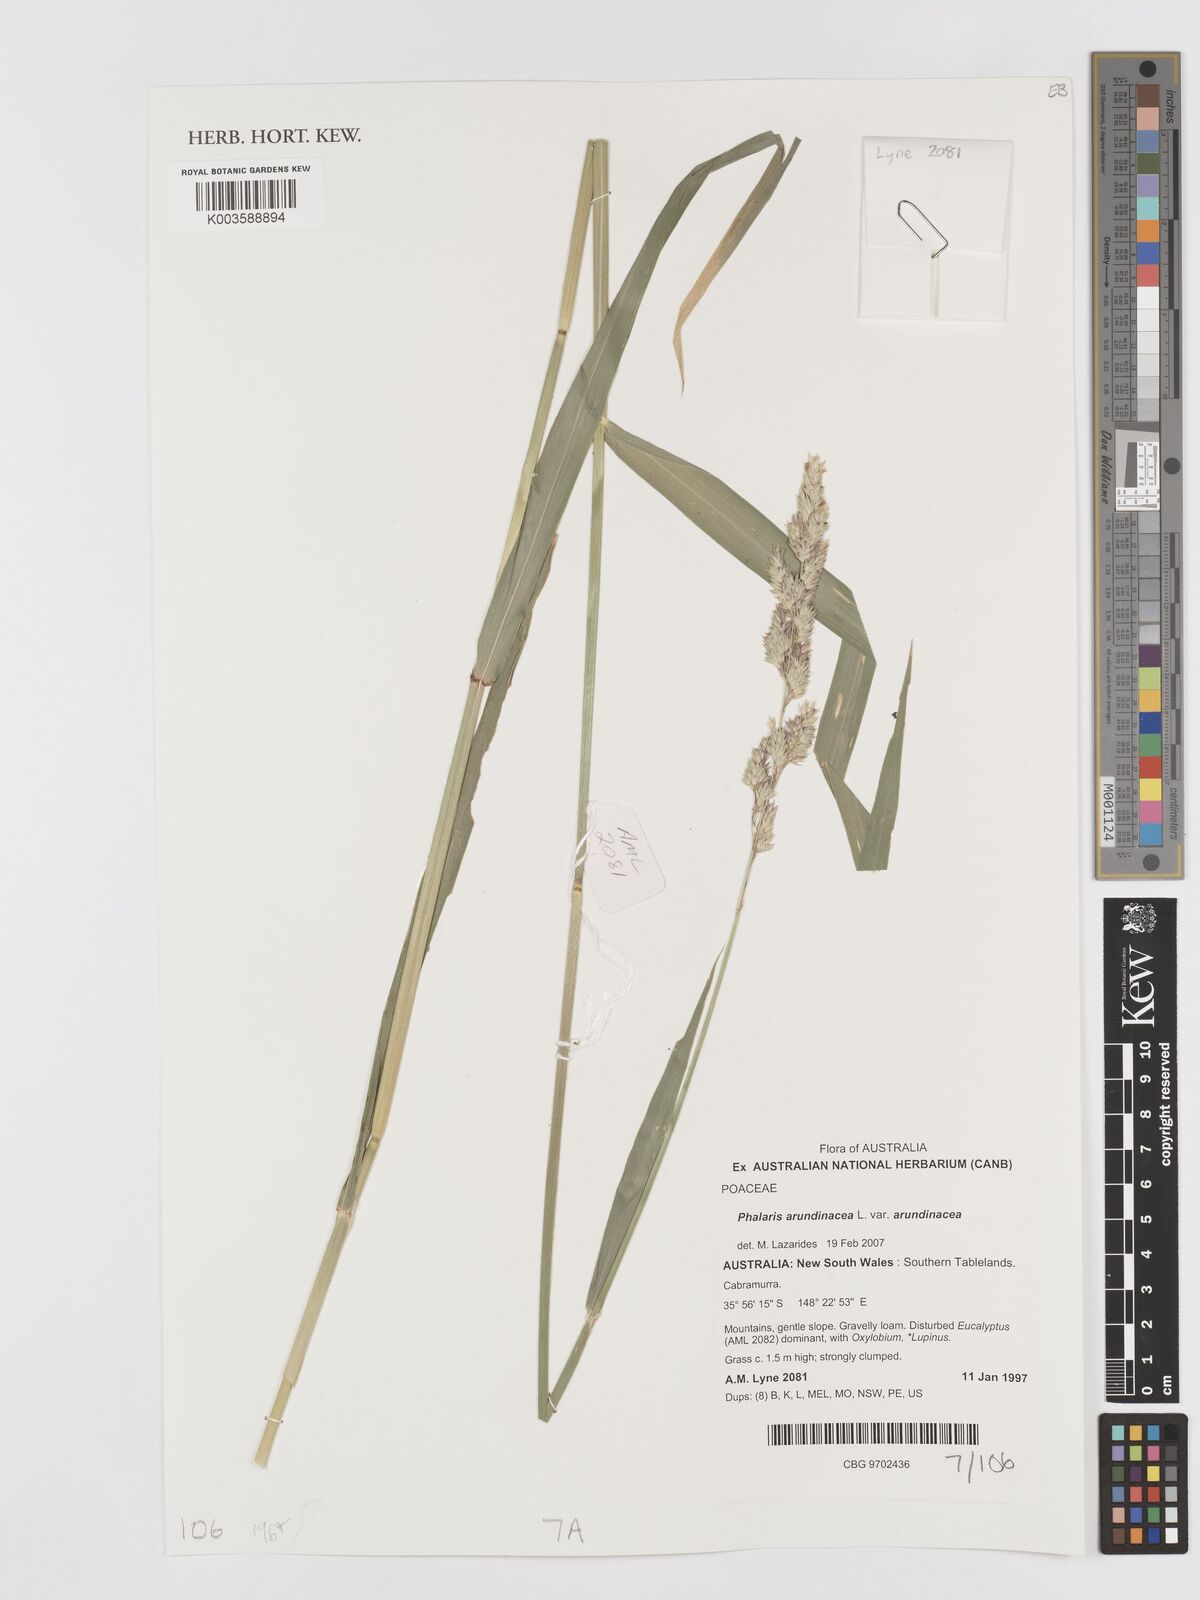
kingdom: Plantae
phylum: Tracheophyta
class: Liliopsida
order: Poales
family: Poaceae
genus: Phalaris
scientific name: Phalaris arundinacea
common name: Reed canary-grass
